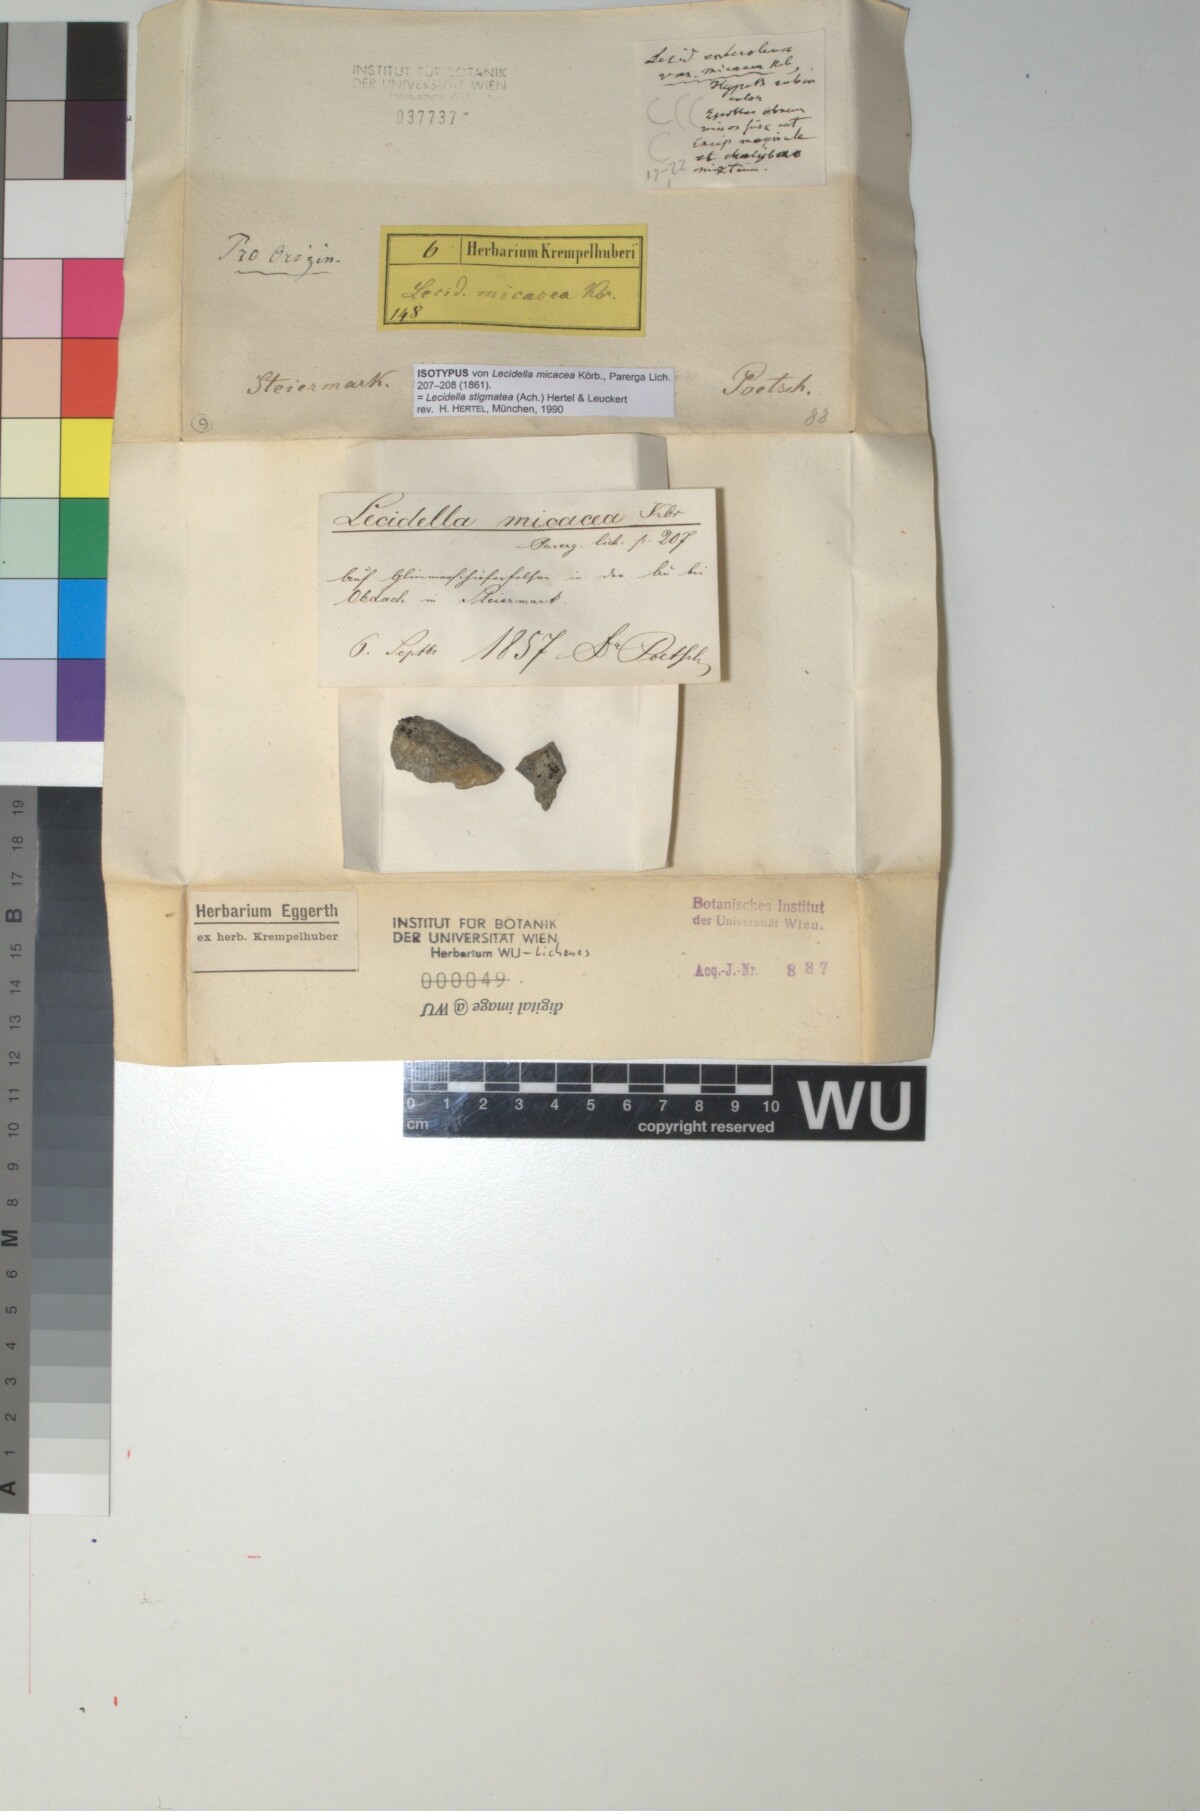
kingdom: Fungi
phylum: Ascomycota
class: Lecanoromycetes
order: Lecanorales
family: Lecanoraceae
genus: Lecidella
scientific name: Lecidella stigmatea
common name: Limestone disc lichen
